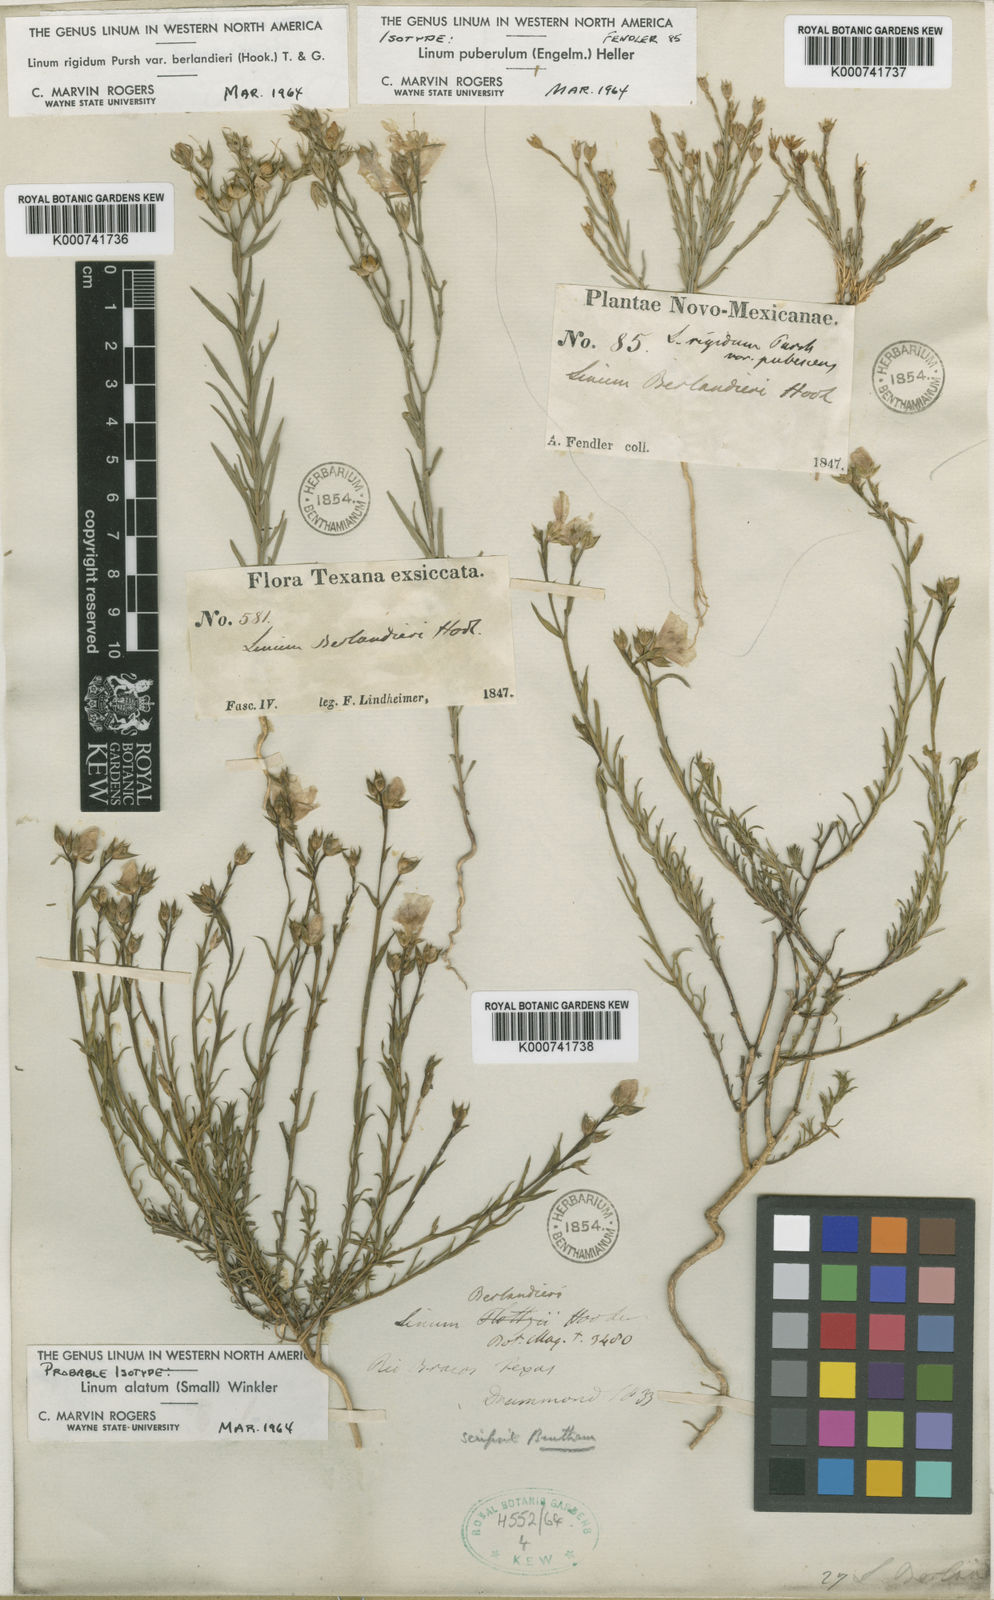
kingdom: Plantae
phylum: Tracheophyta
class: Magnoliopsida
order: Malpighiales
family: Linaceae
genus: Linum
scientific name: Linum alatum
